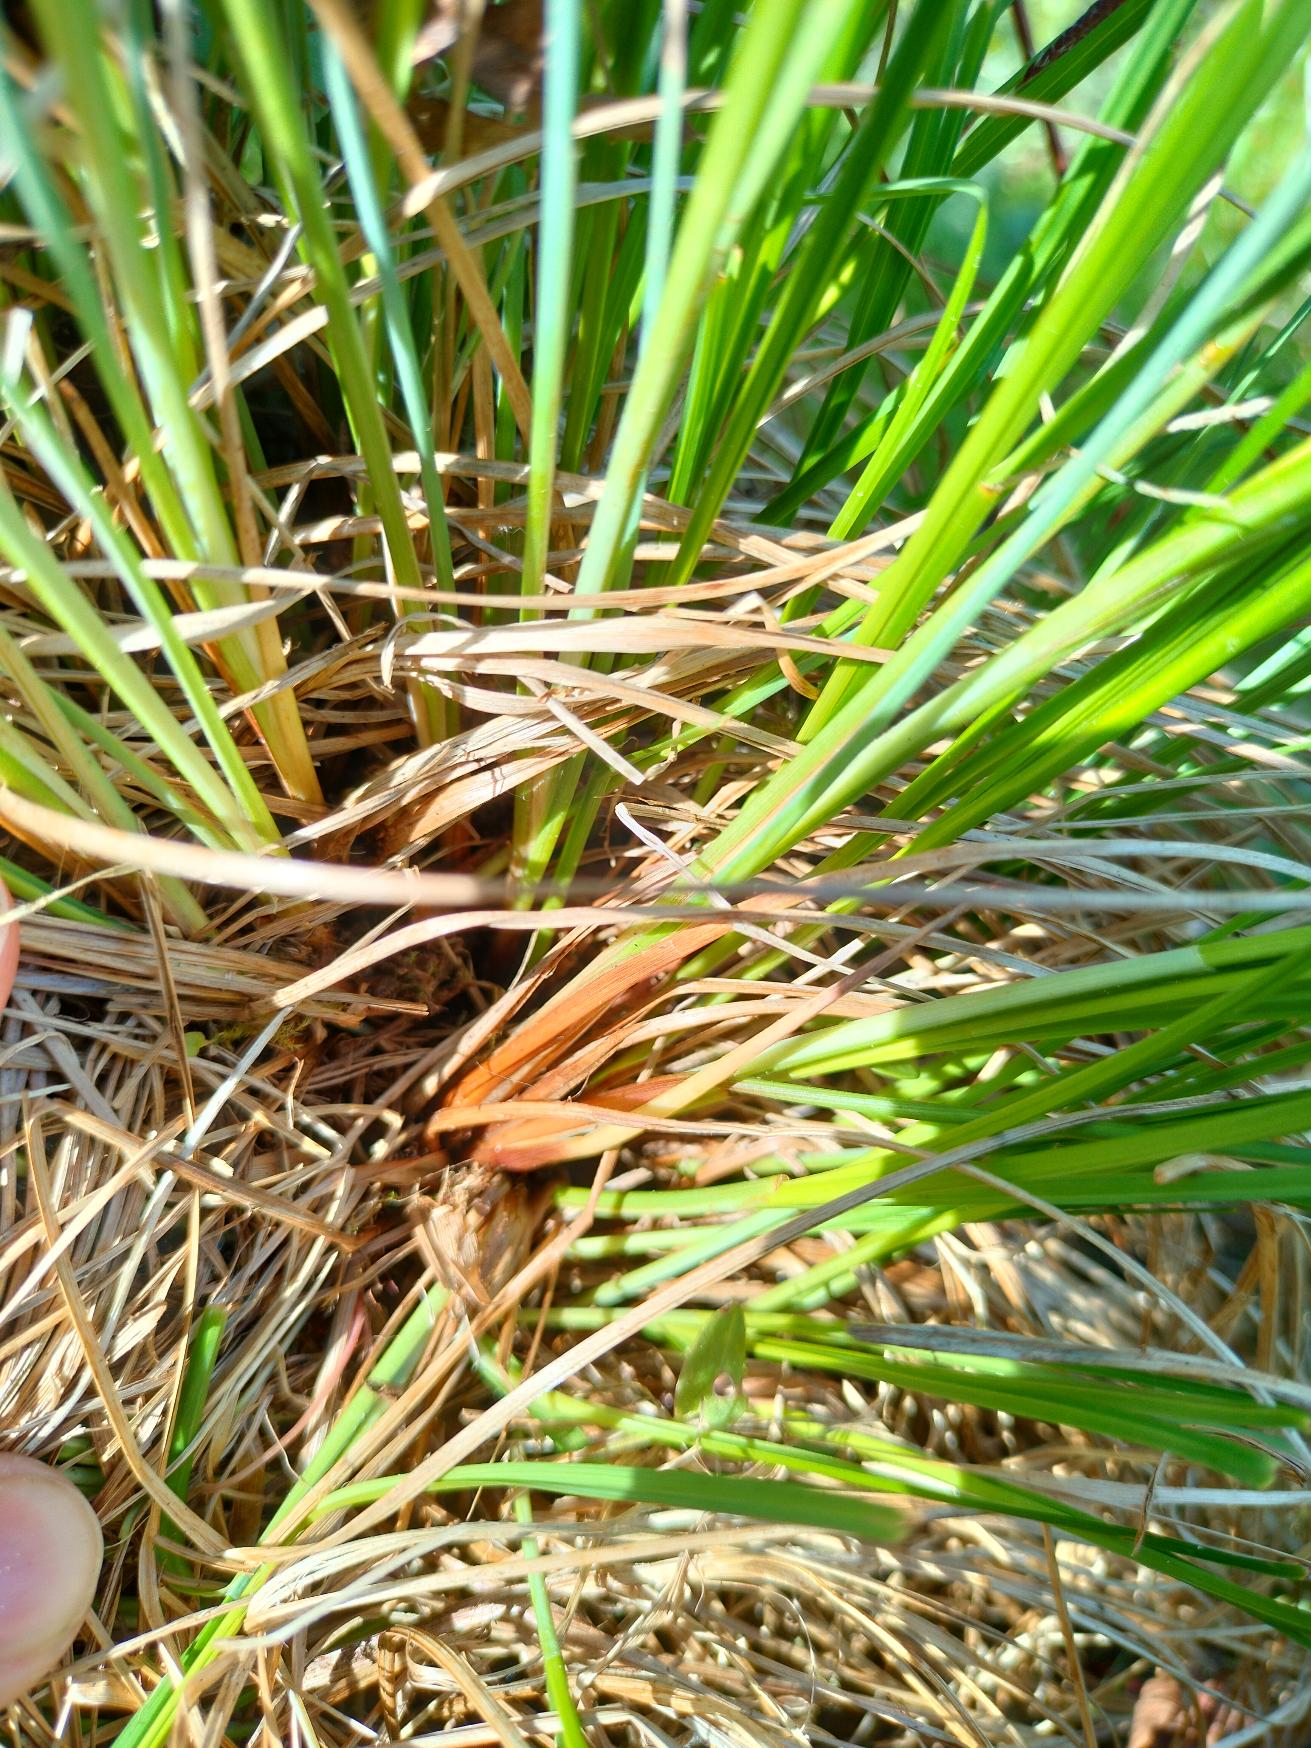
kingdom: Plantae
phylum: Tracheophyta
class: Liliopsida
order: Poales
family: Cyperaceae
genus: Carex
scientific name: Carex nigra
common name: Knold-star
